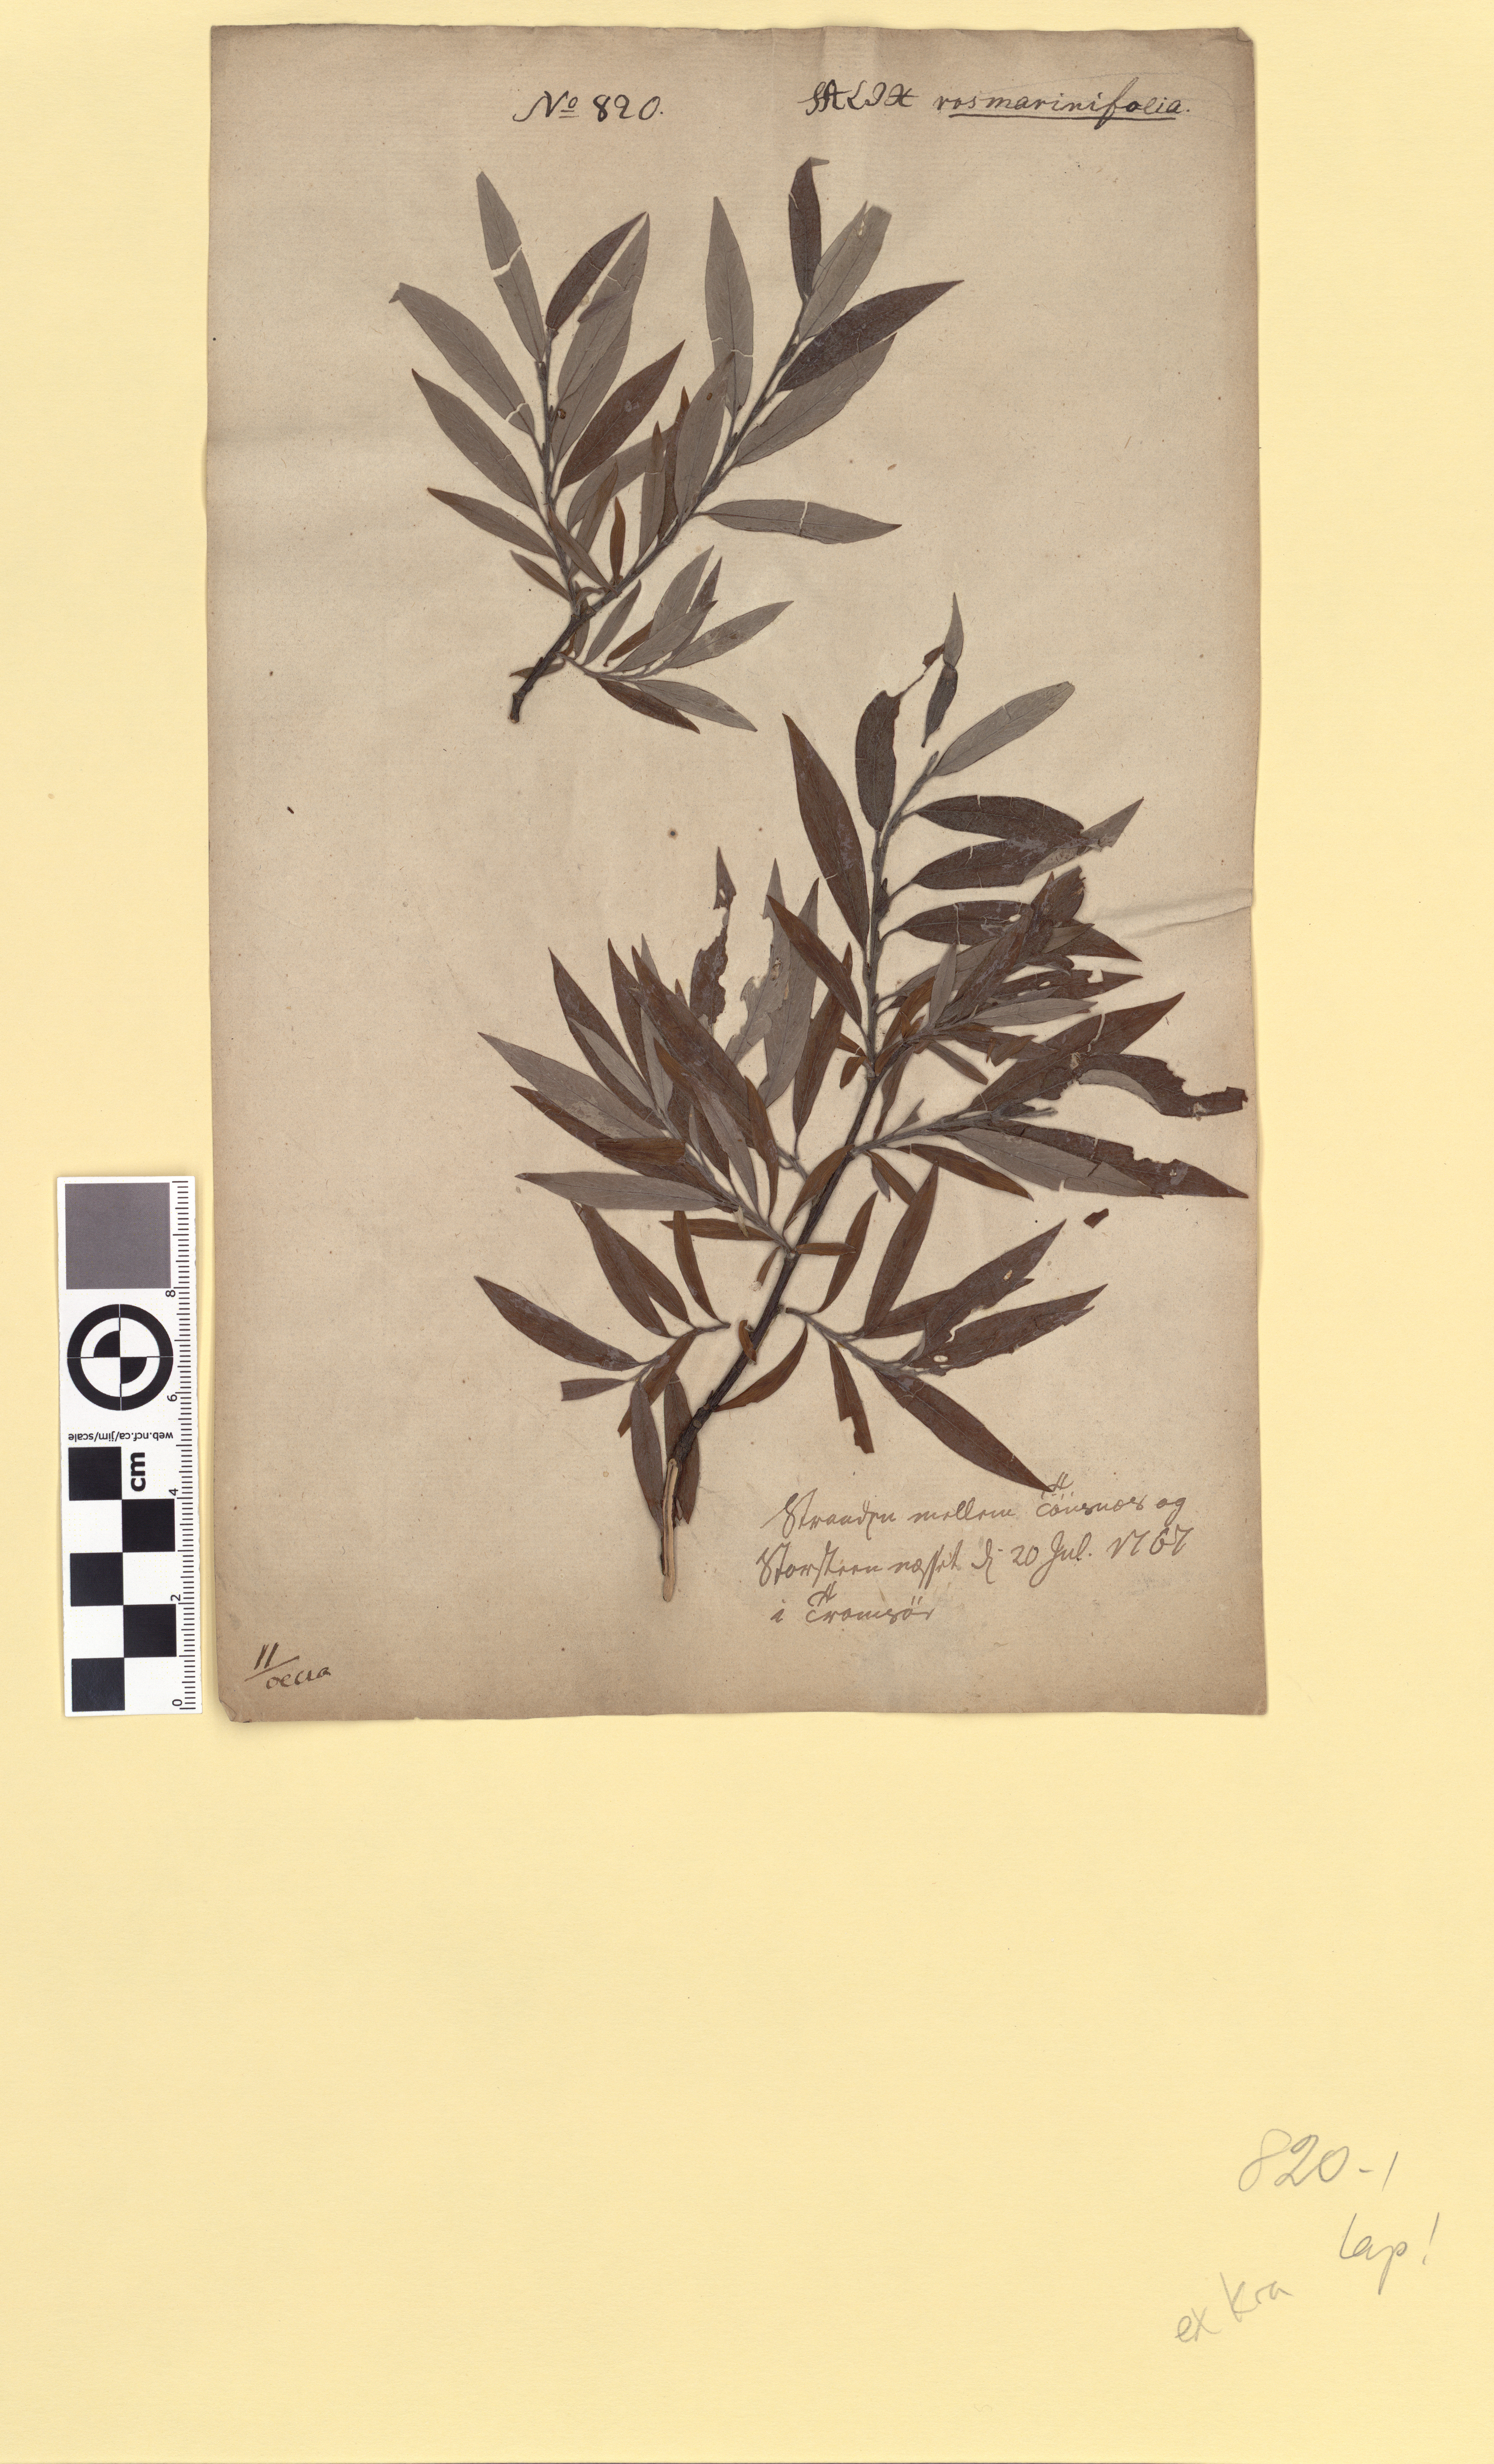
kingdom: Plantae
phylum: Tracheophyta
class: Magnoliopsida
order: Malpighiales
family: Salicaceae
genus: Salix
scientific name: Salix lapponum
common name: Downy willow
